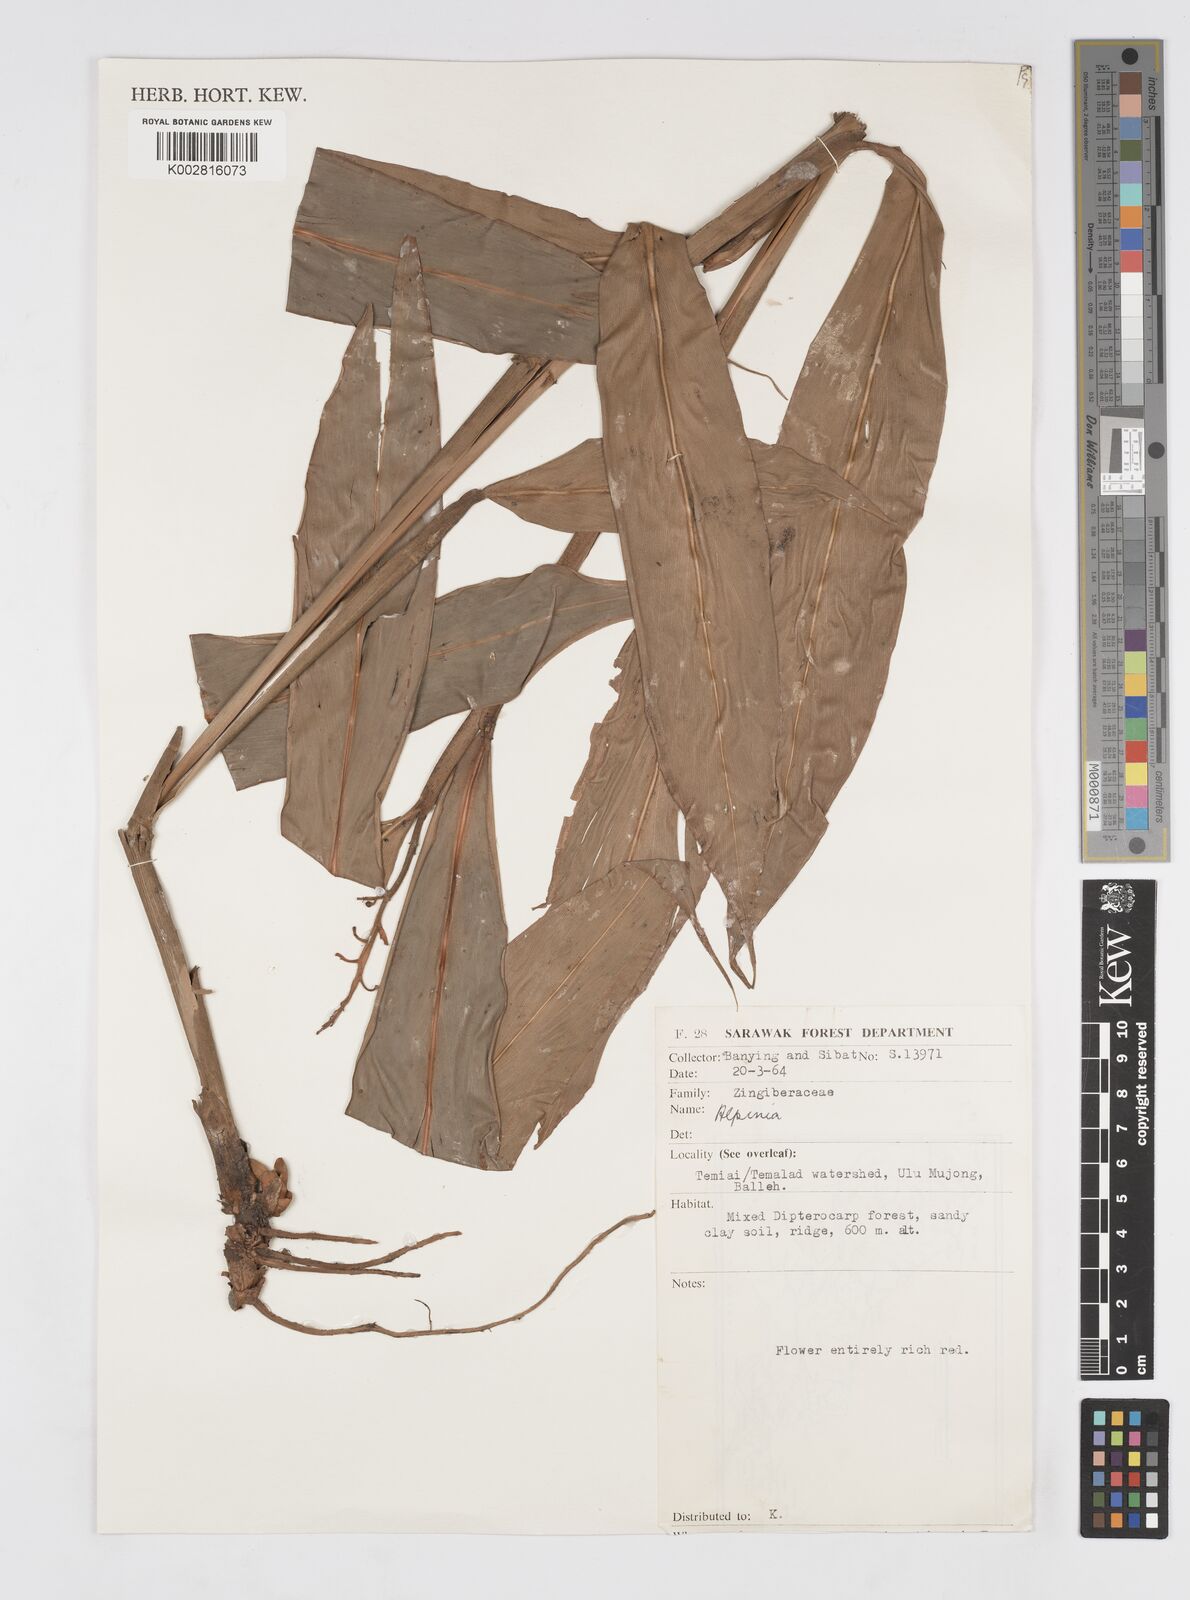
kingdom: Plantae
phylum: Tracheophyta
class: Liliopsida
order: Zingiberales
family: Zingiberaceae
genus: Alpinia
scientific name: Alpinia
